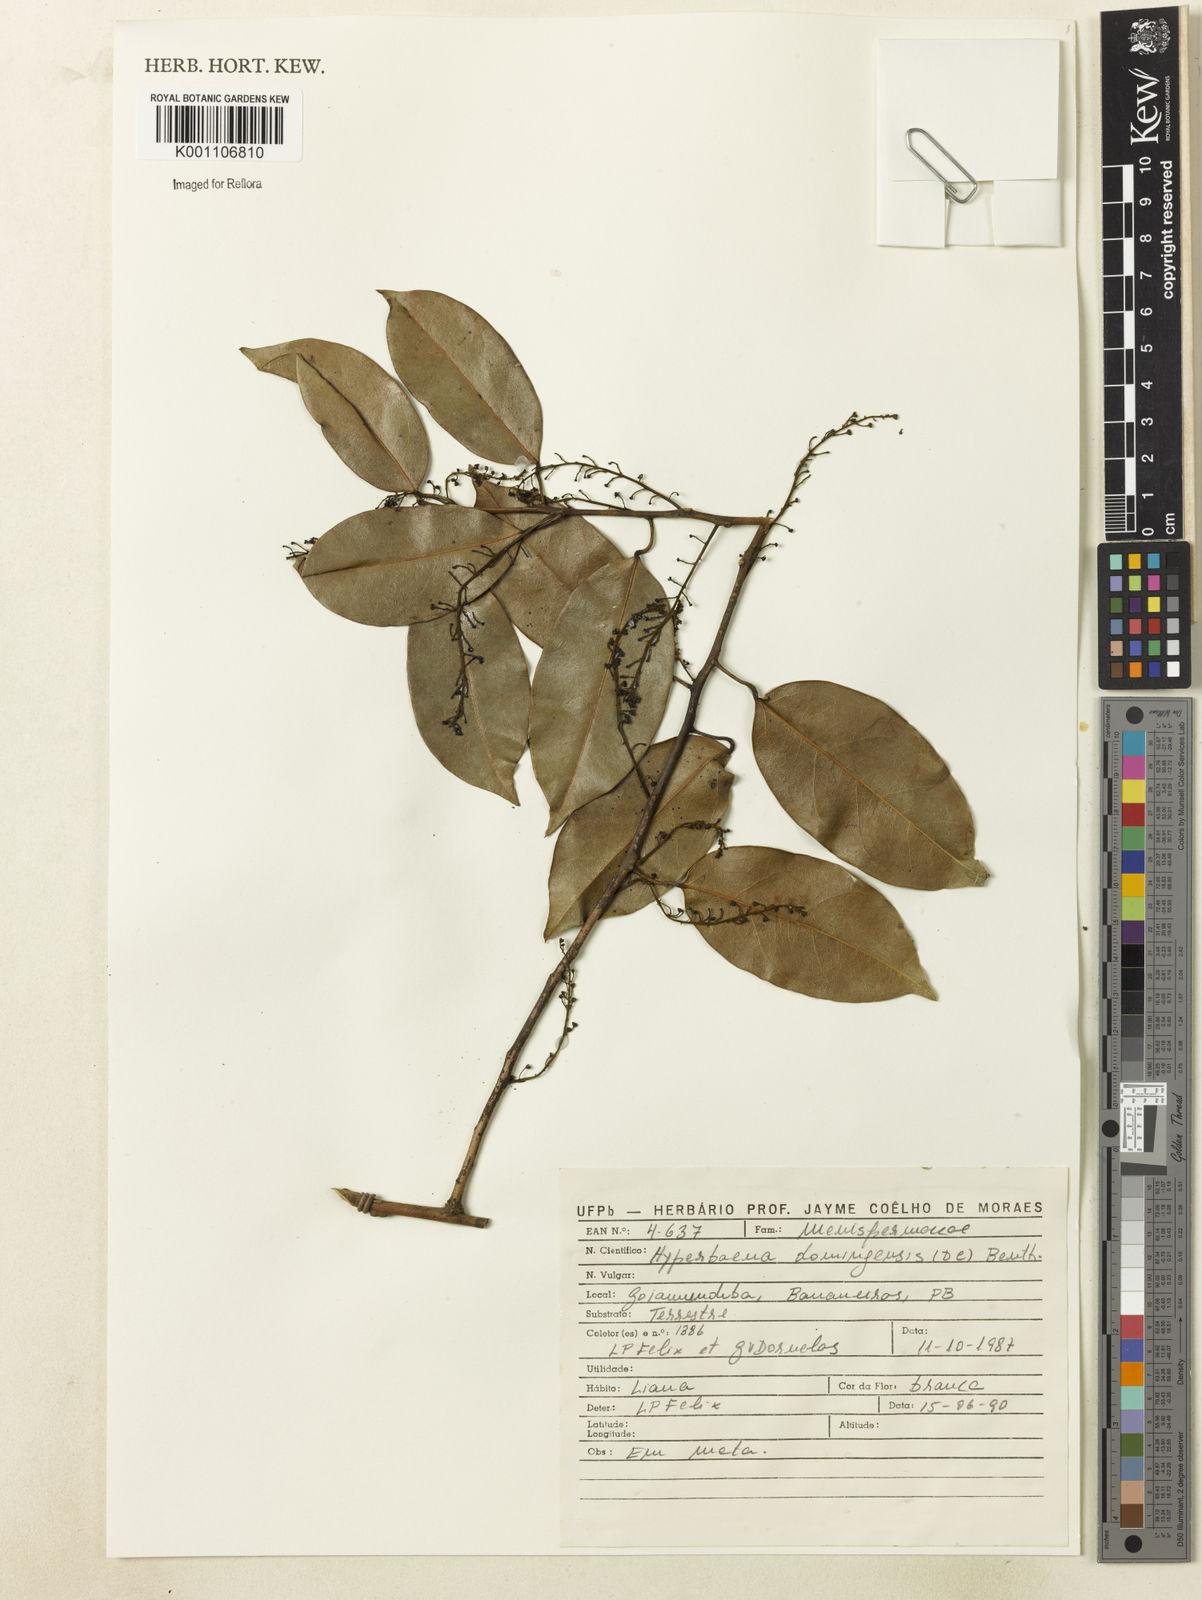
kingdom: Plantae
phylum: Tracheophyta
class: Magnoliopsida
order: Ranunculales
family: Menispermaceae
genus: Hyperbaena
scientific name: Hyperbaena domingensis
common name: Forest snakevine
